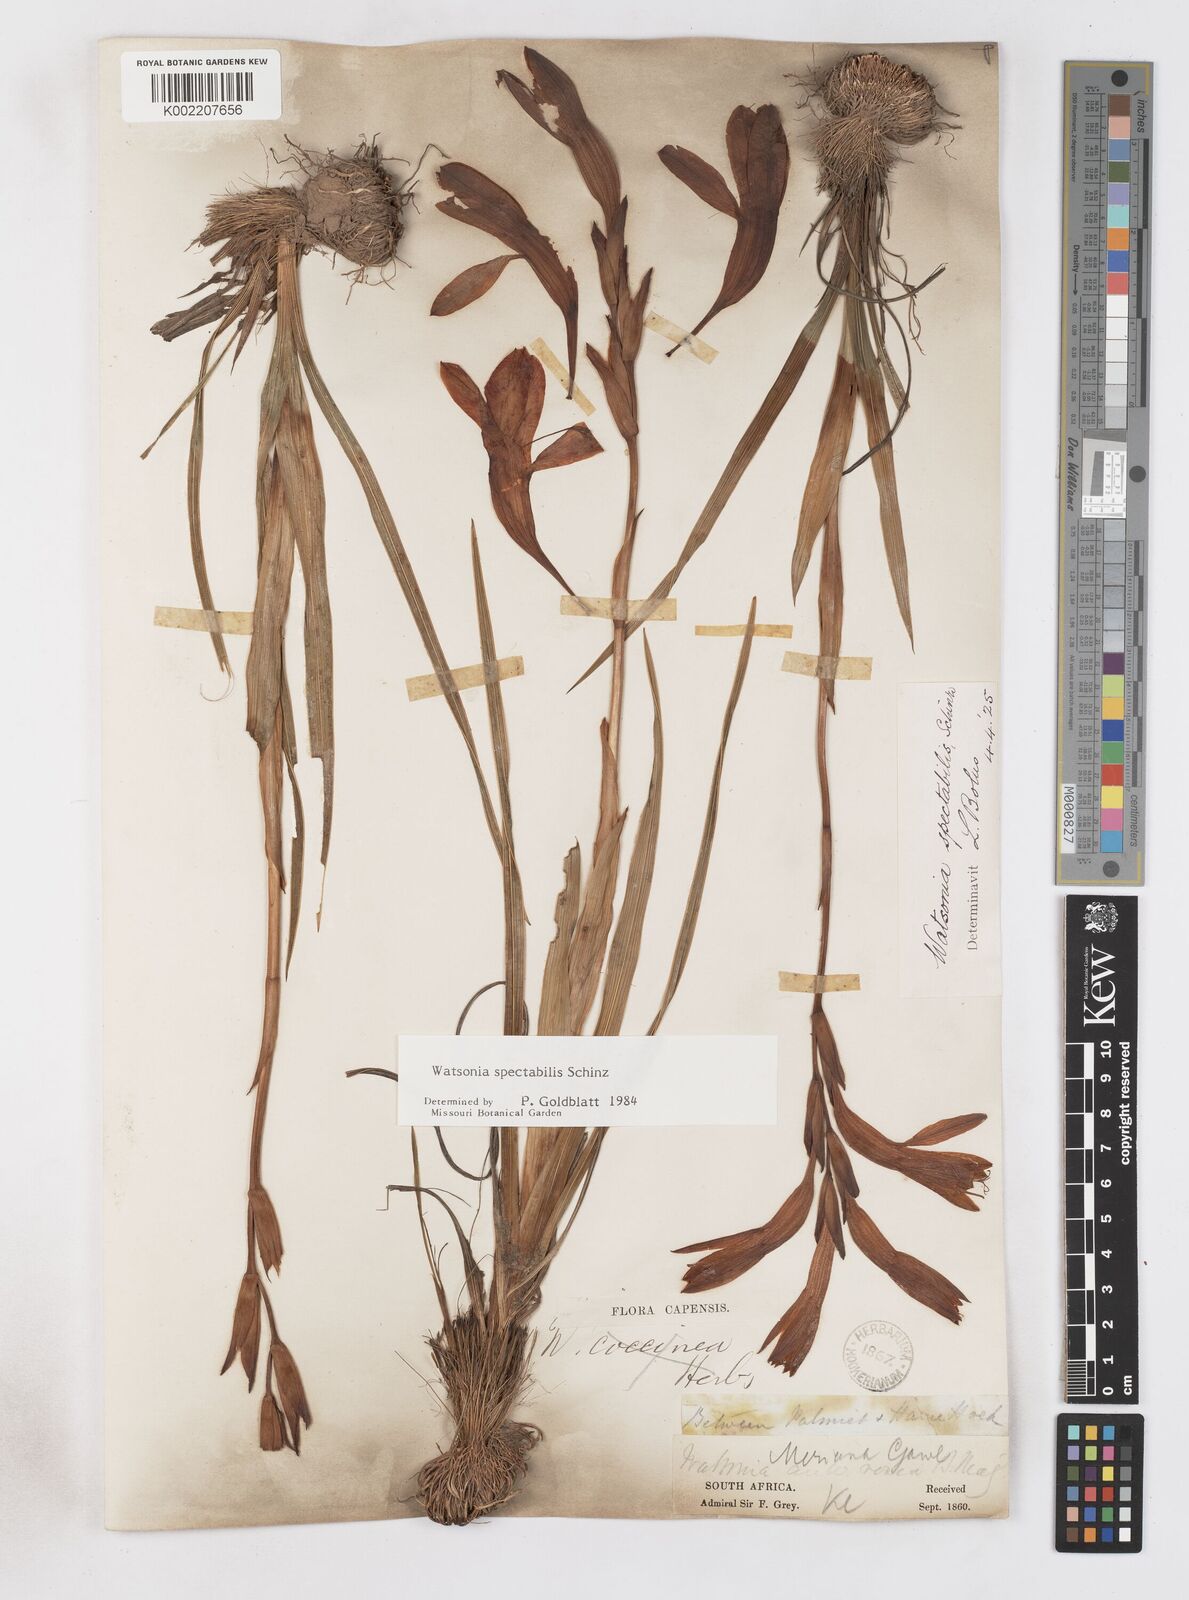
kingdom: Plantae
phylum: Tracheophyta
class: Liliopsida
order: Asparagales
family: Iridaceae
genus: Watsonia
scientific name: Watsonia spectabilis
